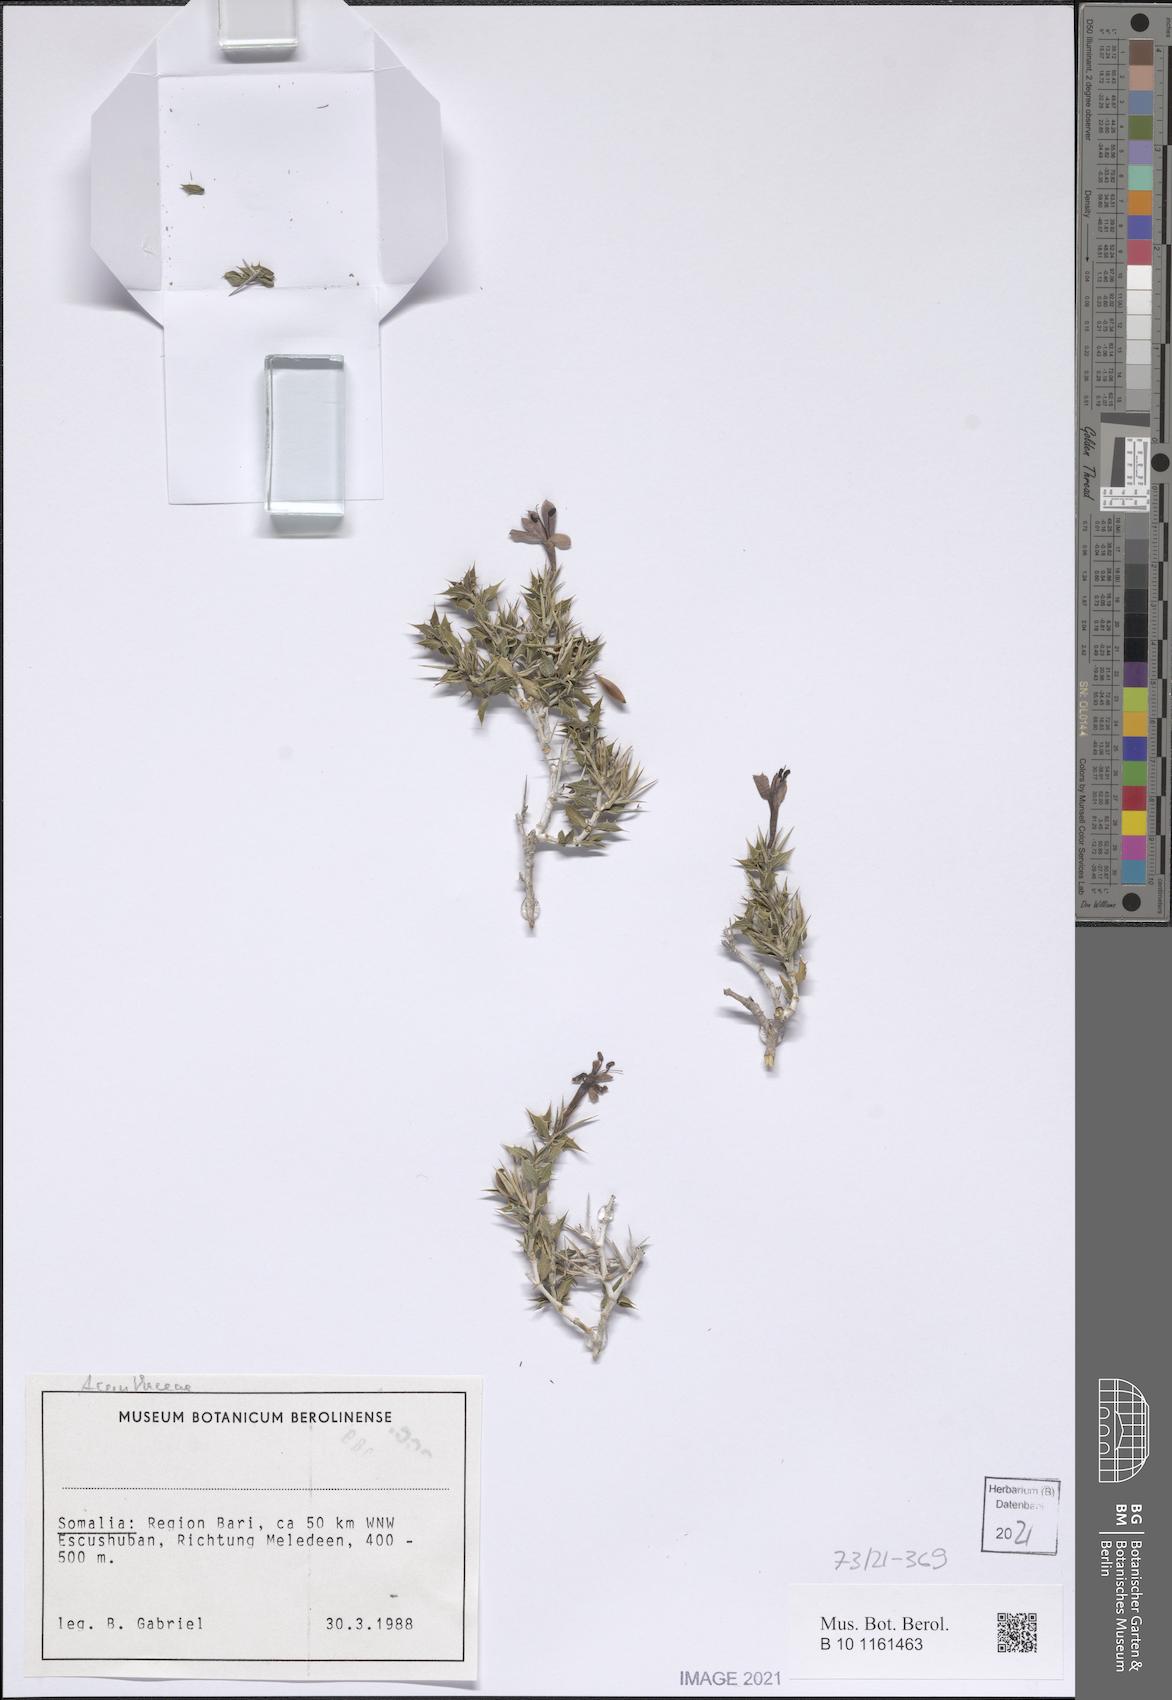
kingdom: Plantae
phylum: Tracheophyta
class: Magnoliopsida
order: Lamiales
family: Acanthaceae
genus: Barleria
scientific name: Barleria dentata
